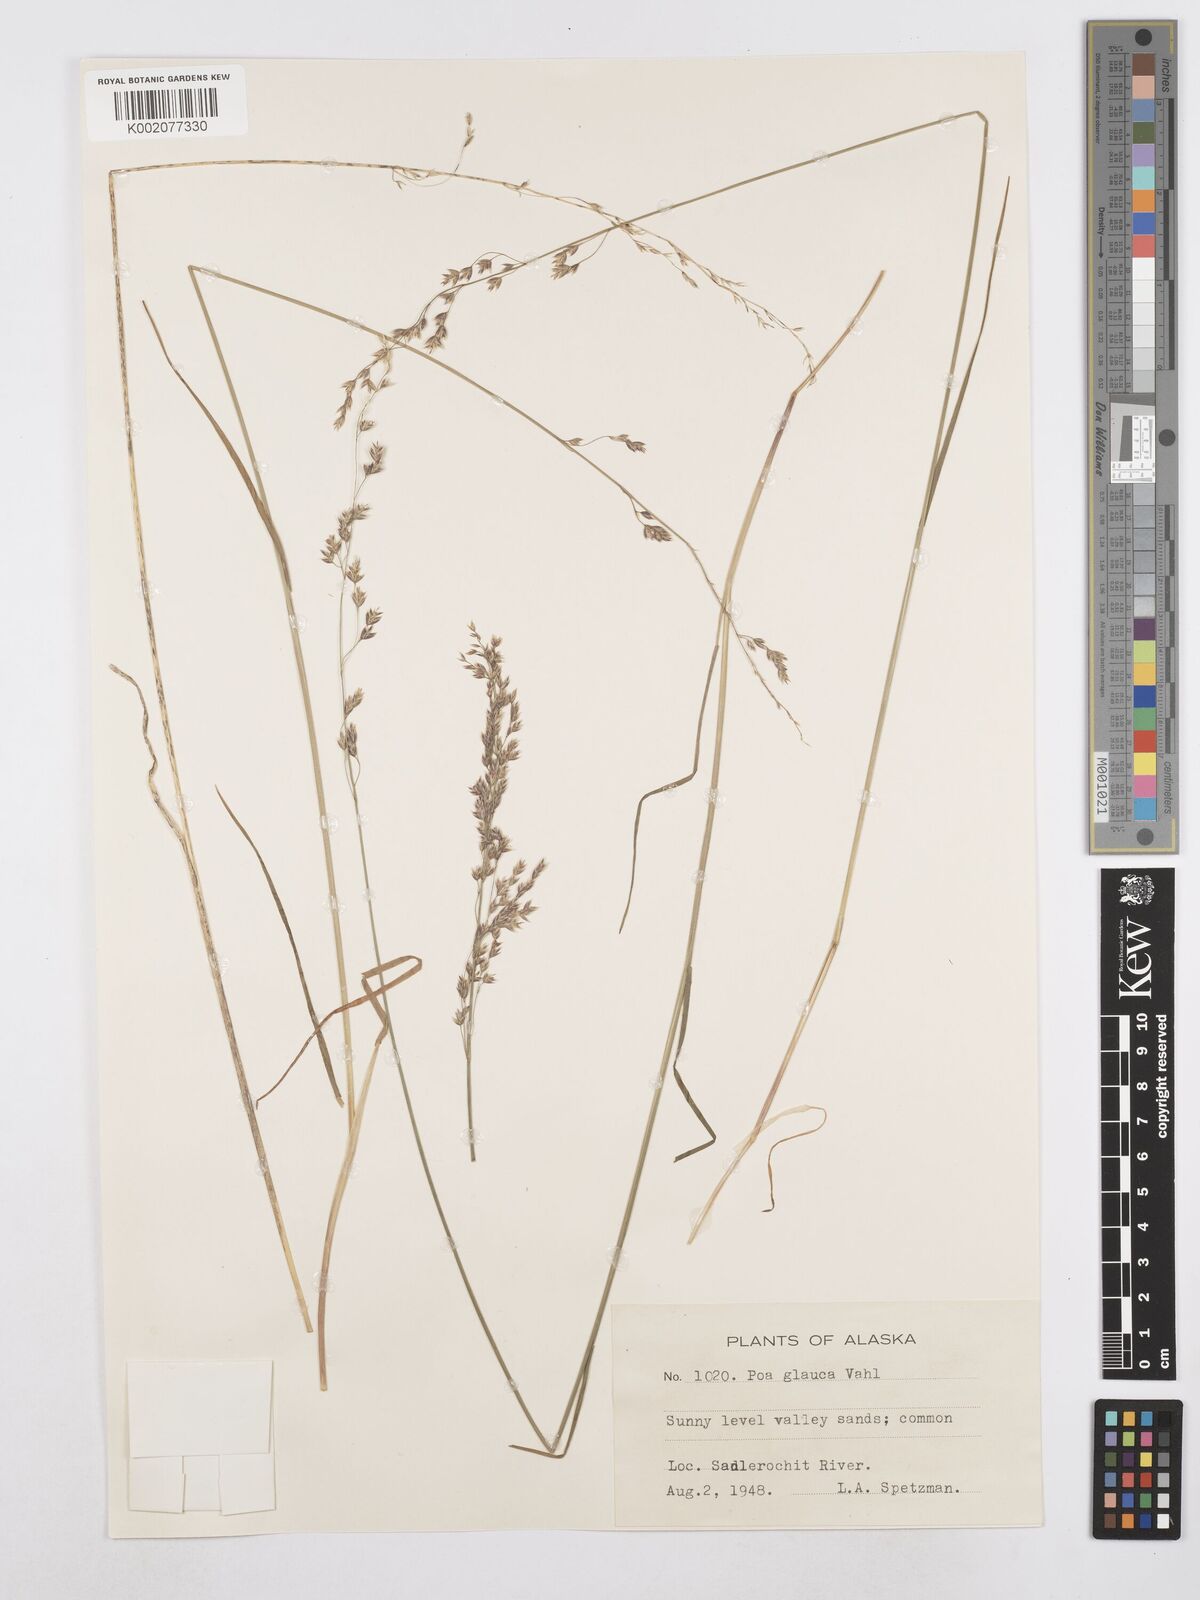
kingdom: Plantae
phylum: Tracheophyta
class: Liliopsida
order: Poales
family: Poaceae
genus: Poa
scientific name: Poa glauca
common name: Glaucous bluegrass
